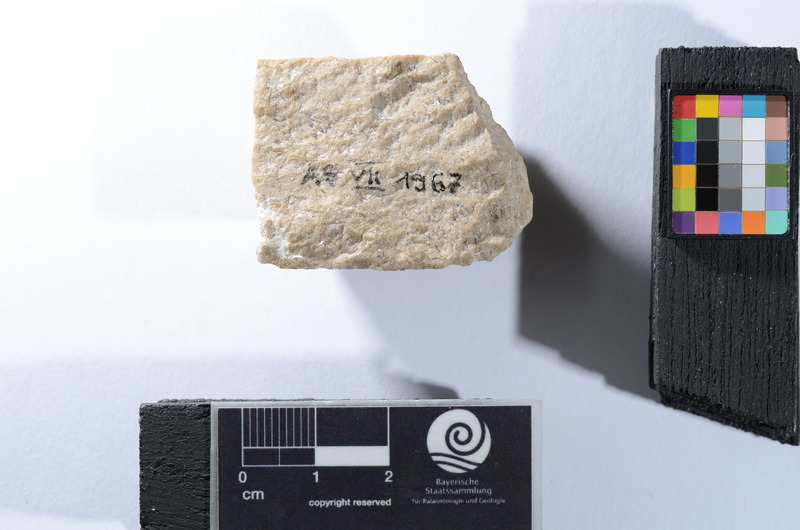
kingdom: Animalia
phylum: Chordata
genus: Nephrotus
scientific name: Nephrotus
